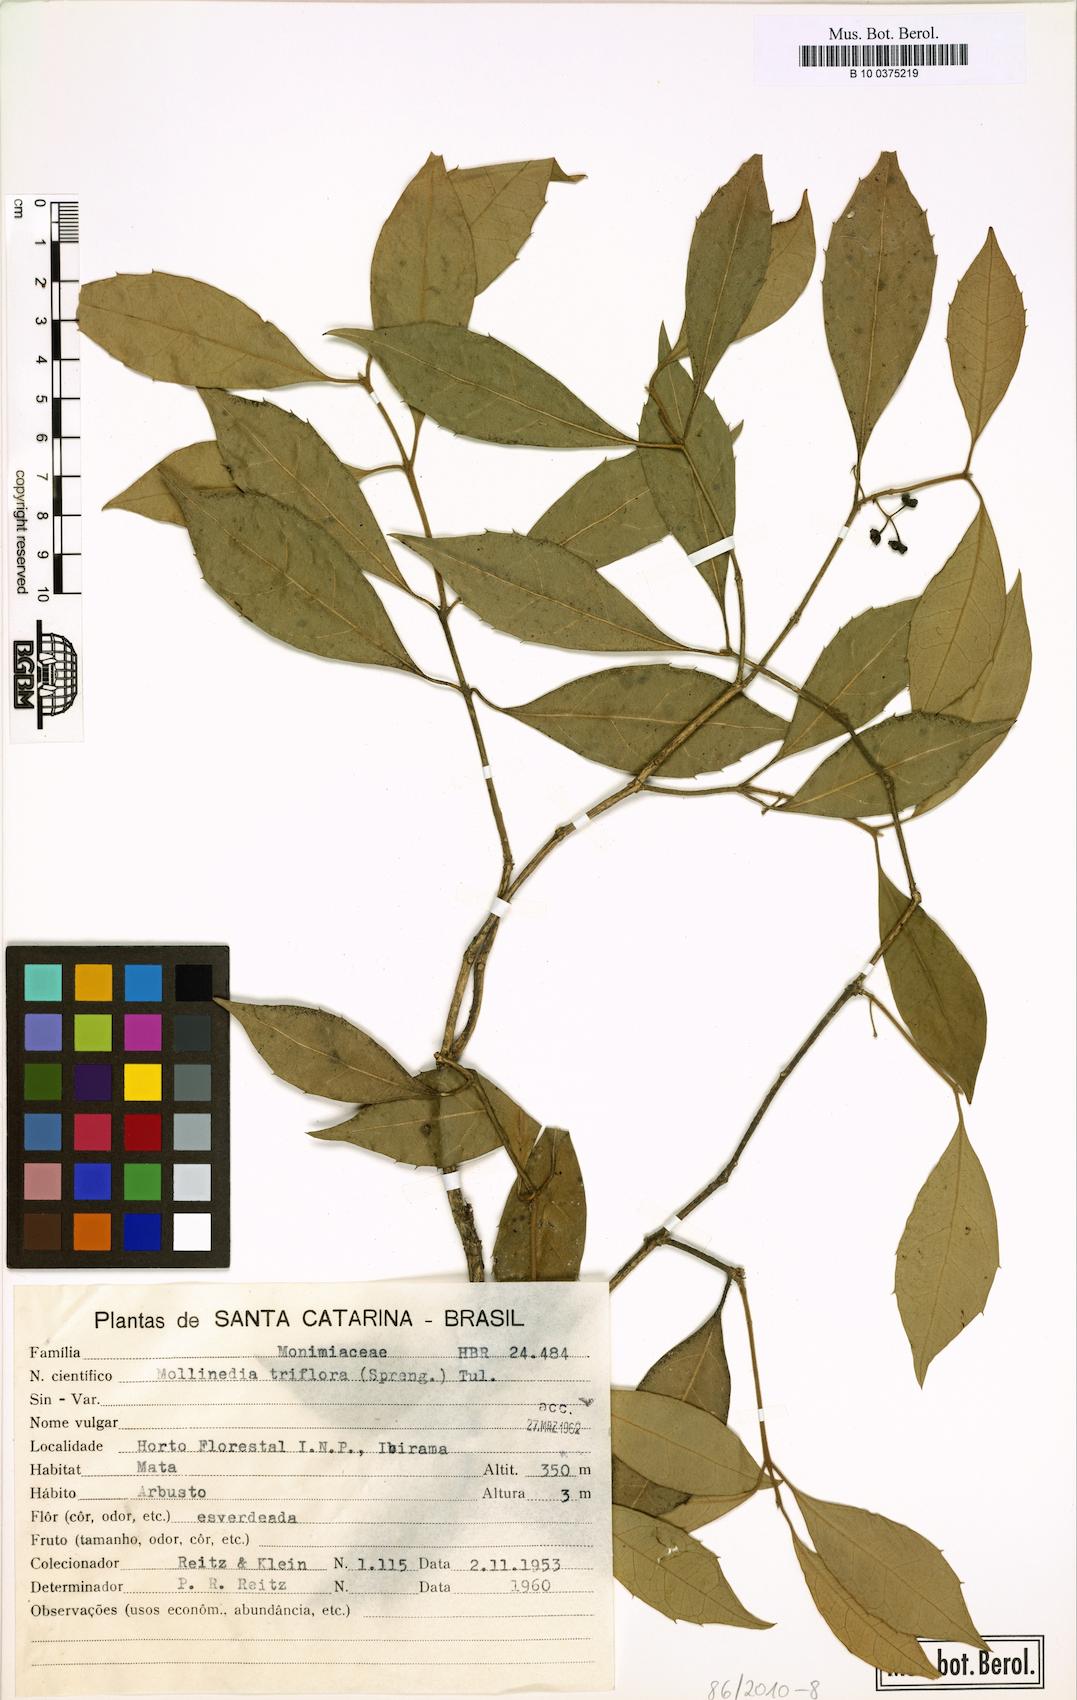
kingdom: Plantae
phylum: Tracheophyta
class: Magnoliopsida
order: Laurales
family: Monimiaceae
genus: Mollinedia
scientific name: Mollinedia triflora
